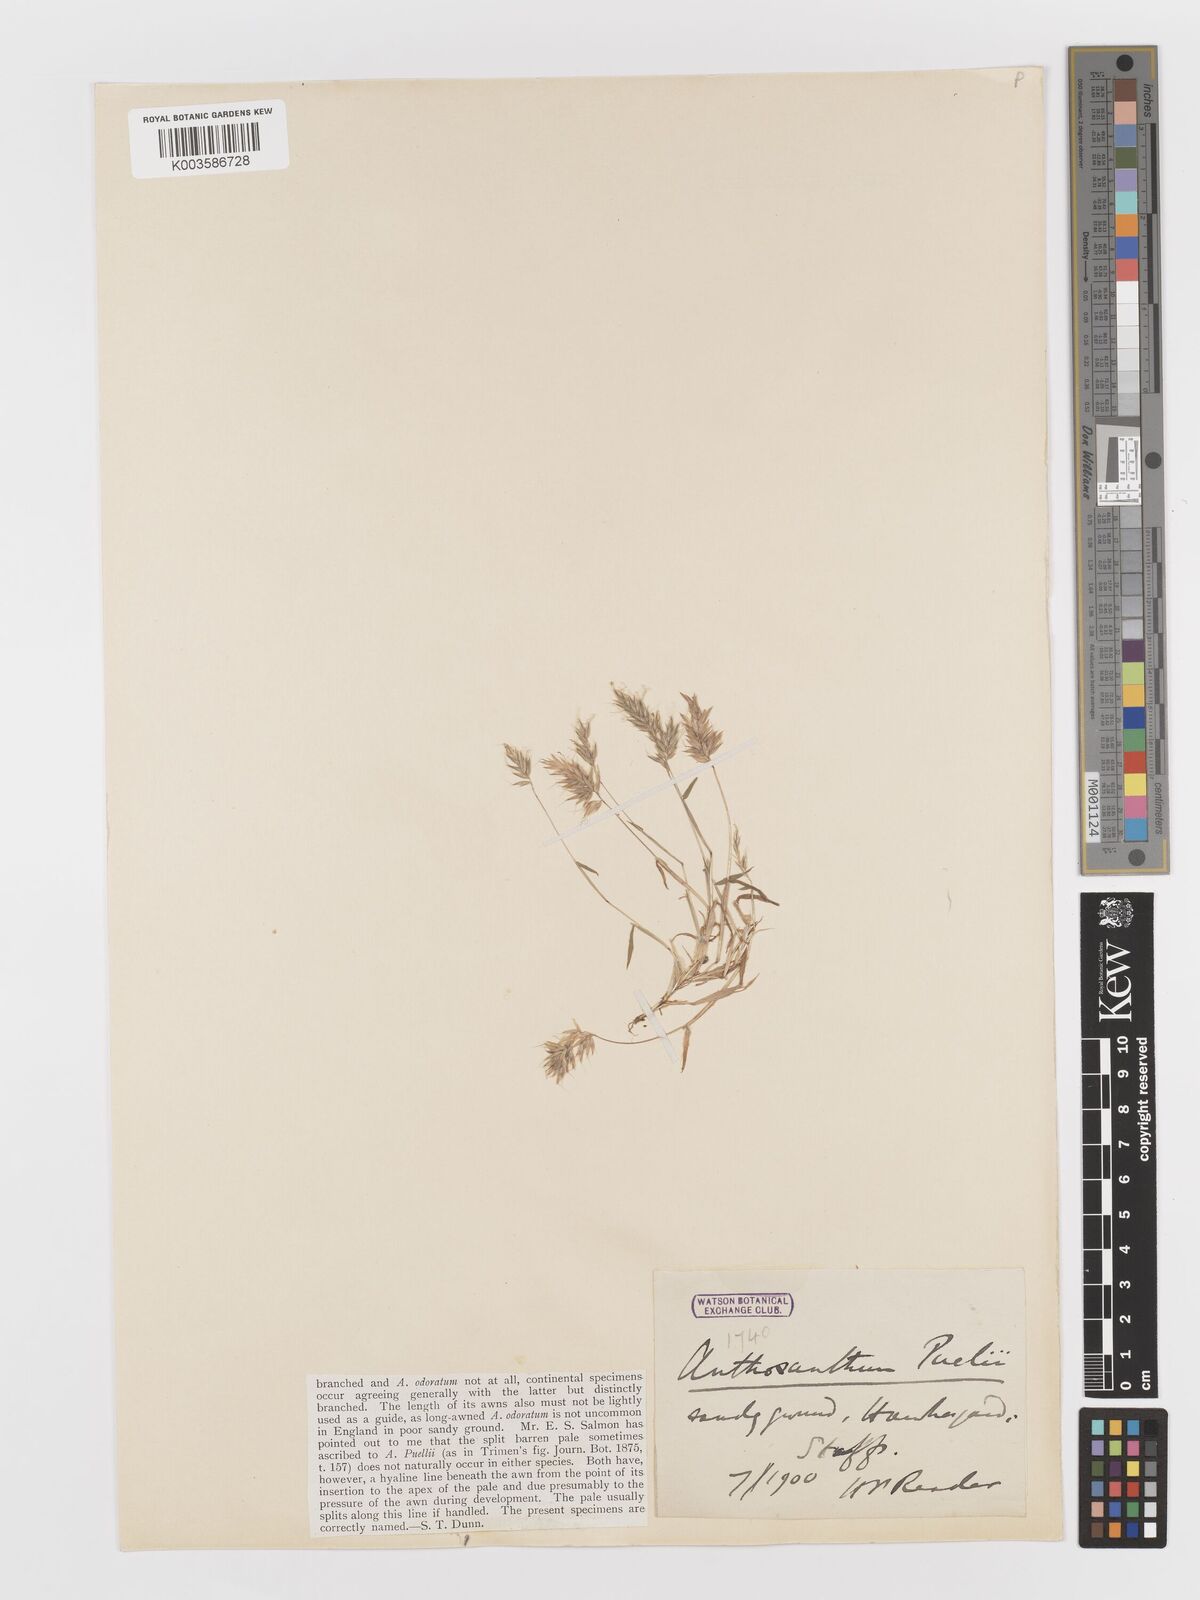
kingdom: Plantae
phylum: Tracheophyta
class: Liliopsida
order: Poales
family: Poaceae
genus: Anthoxanthum
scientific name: Anthoxanthum aristatum
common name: Annual vernal-grass
